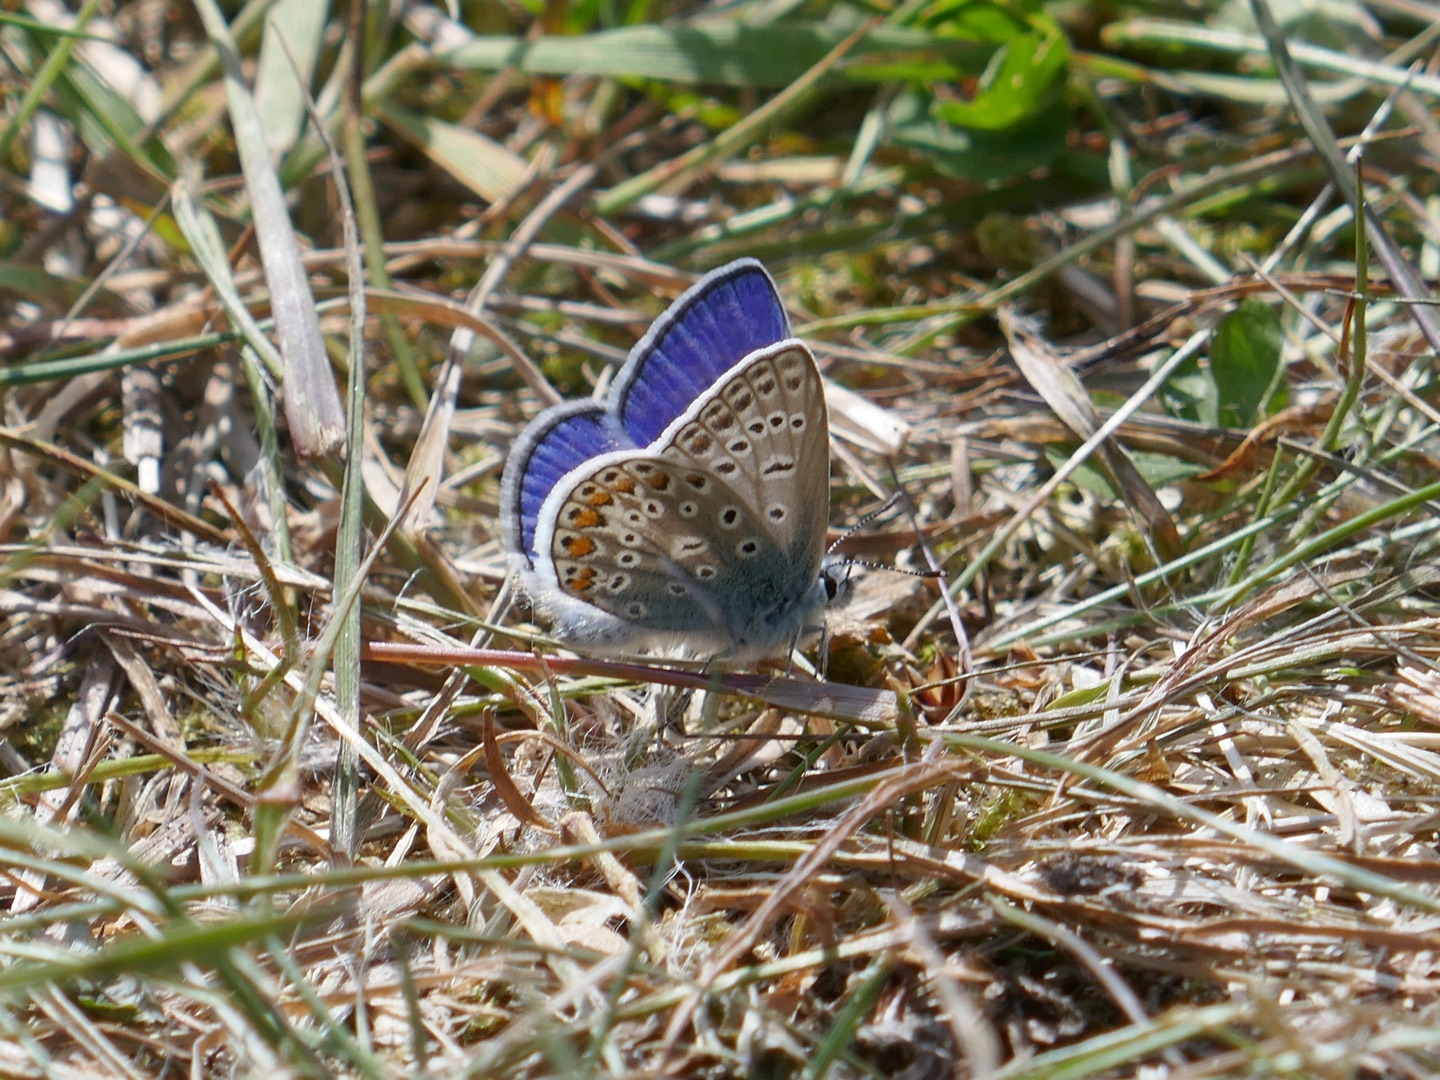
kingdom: Animalia
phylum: Arthropoda
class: Insecta
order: Lepidoptera
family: Lycaenidae
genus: Polyommatus
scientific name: Polyommatus icarus
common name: Almindelig blåfugl
